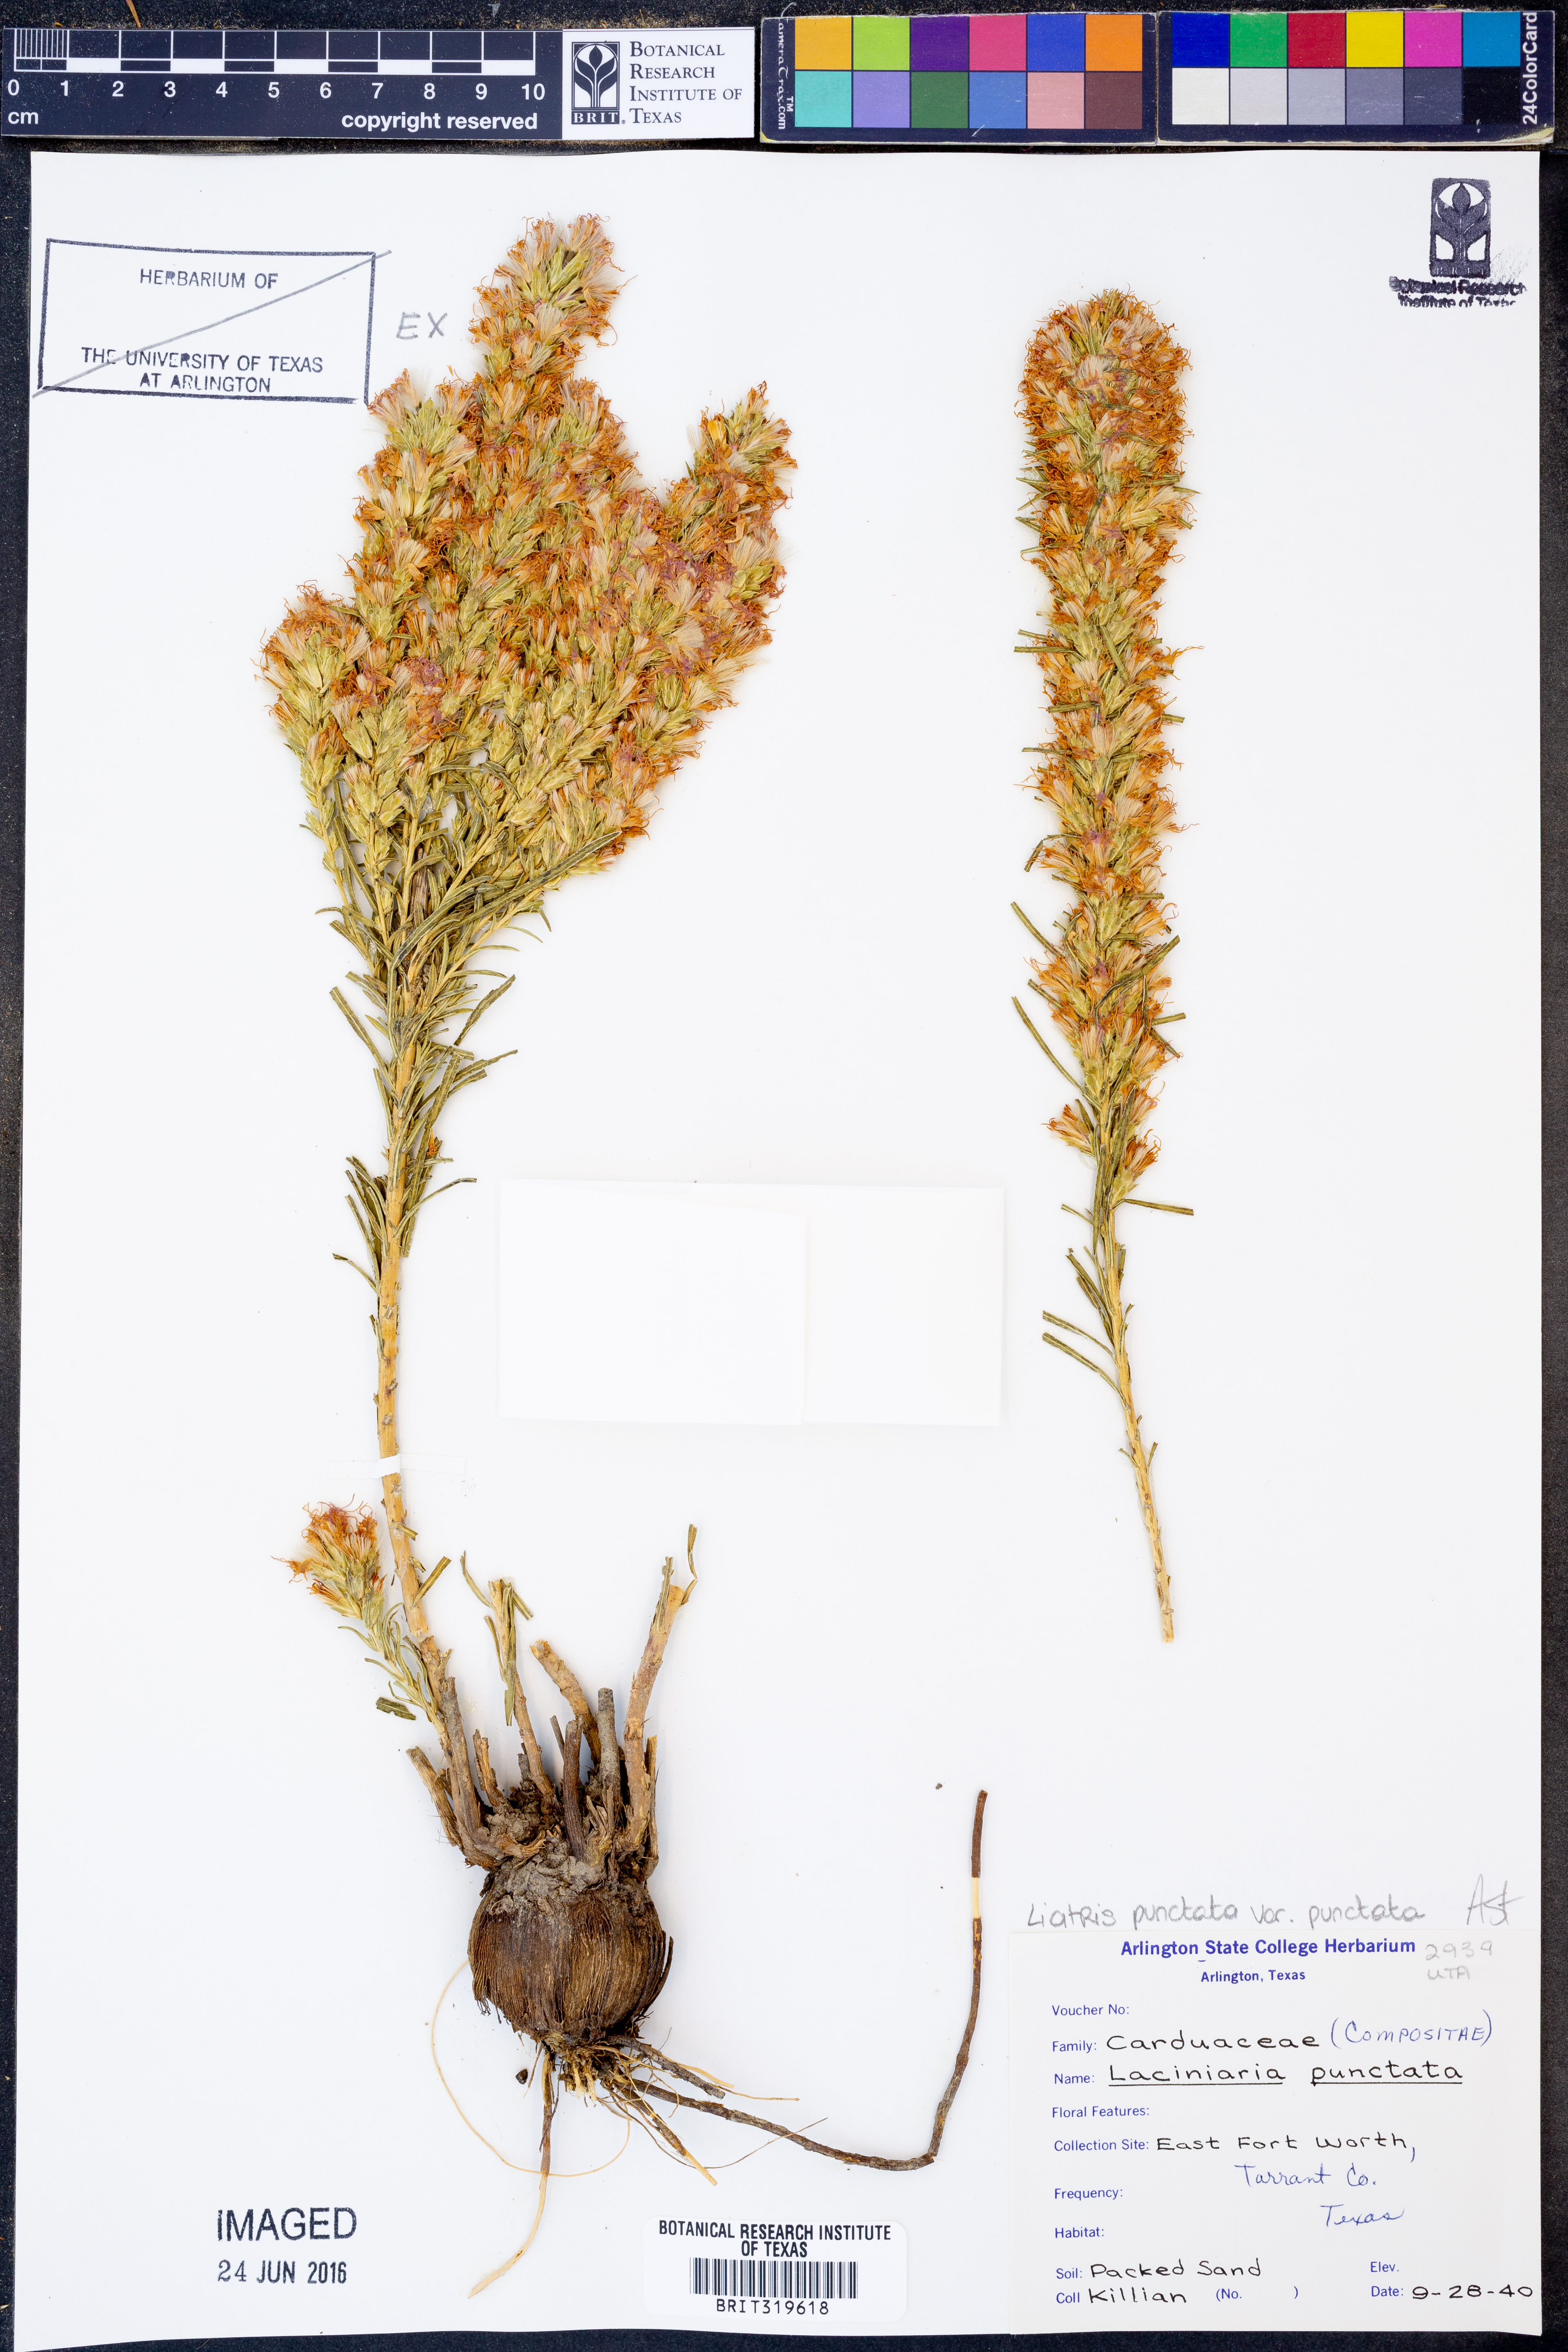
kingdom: Plantae
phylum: Tracheophyta
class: Magnoliopsida
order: Asterales
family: Asteraceae
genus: Liatris
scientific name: Liatris punctata
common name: Dotted gayfeather
